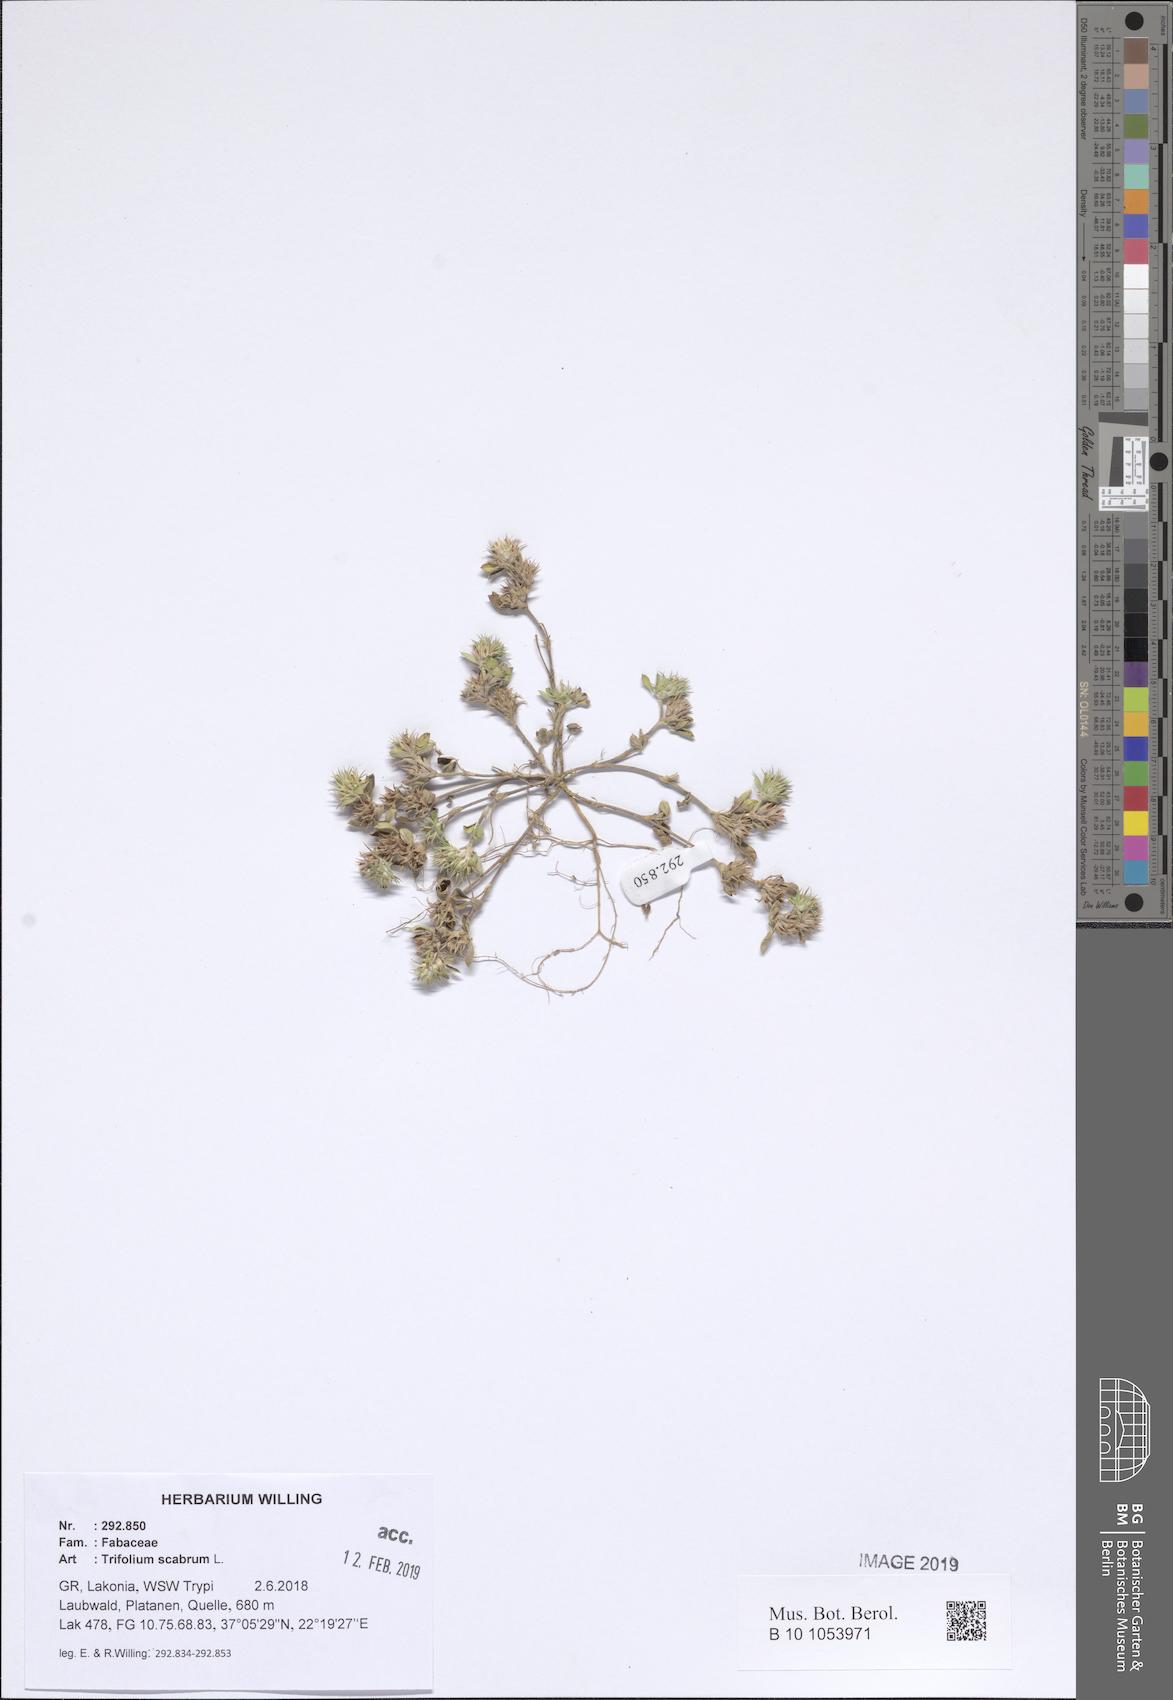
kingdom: Plantae
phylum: Tracheophyta
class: Magnoliopsida
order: Fabales
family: Fabaceae
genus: Trifolium
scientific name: Trifolium scabrum
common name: Rough clover
